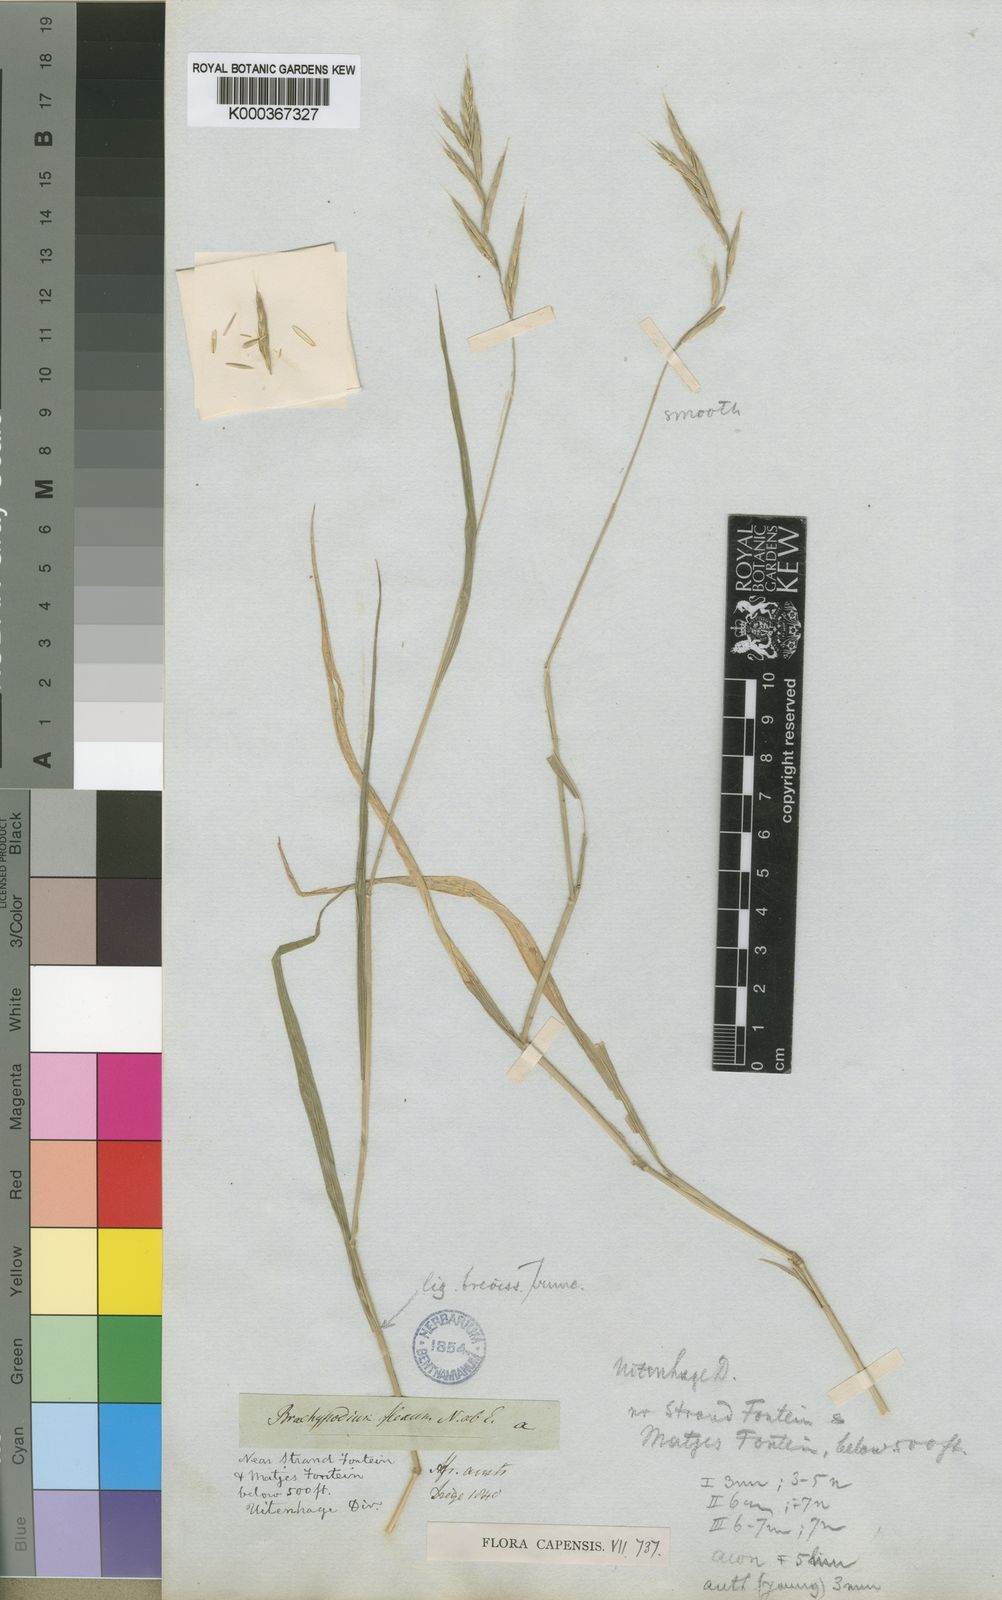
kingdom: Plantae
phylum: Tracheophyta
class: Liliopsida
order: Poales
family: Poaceae
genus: Brachypodium
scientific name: Brachypodium flexum
